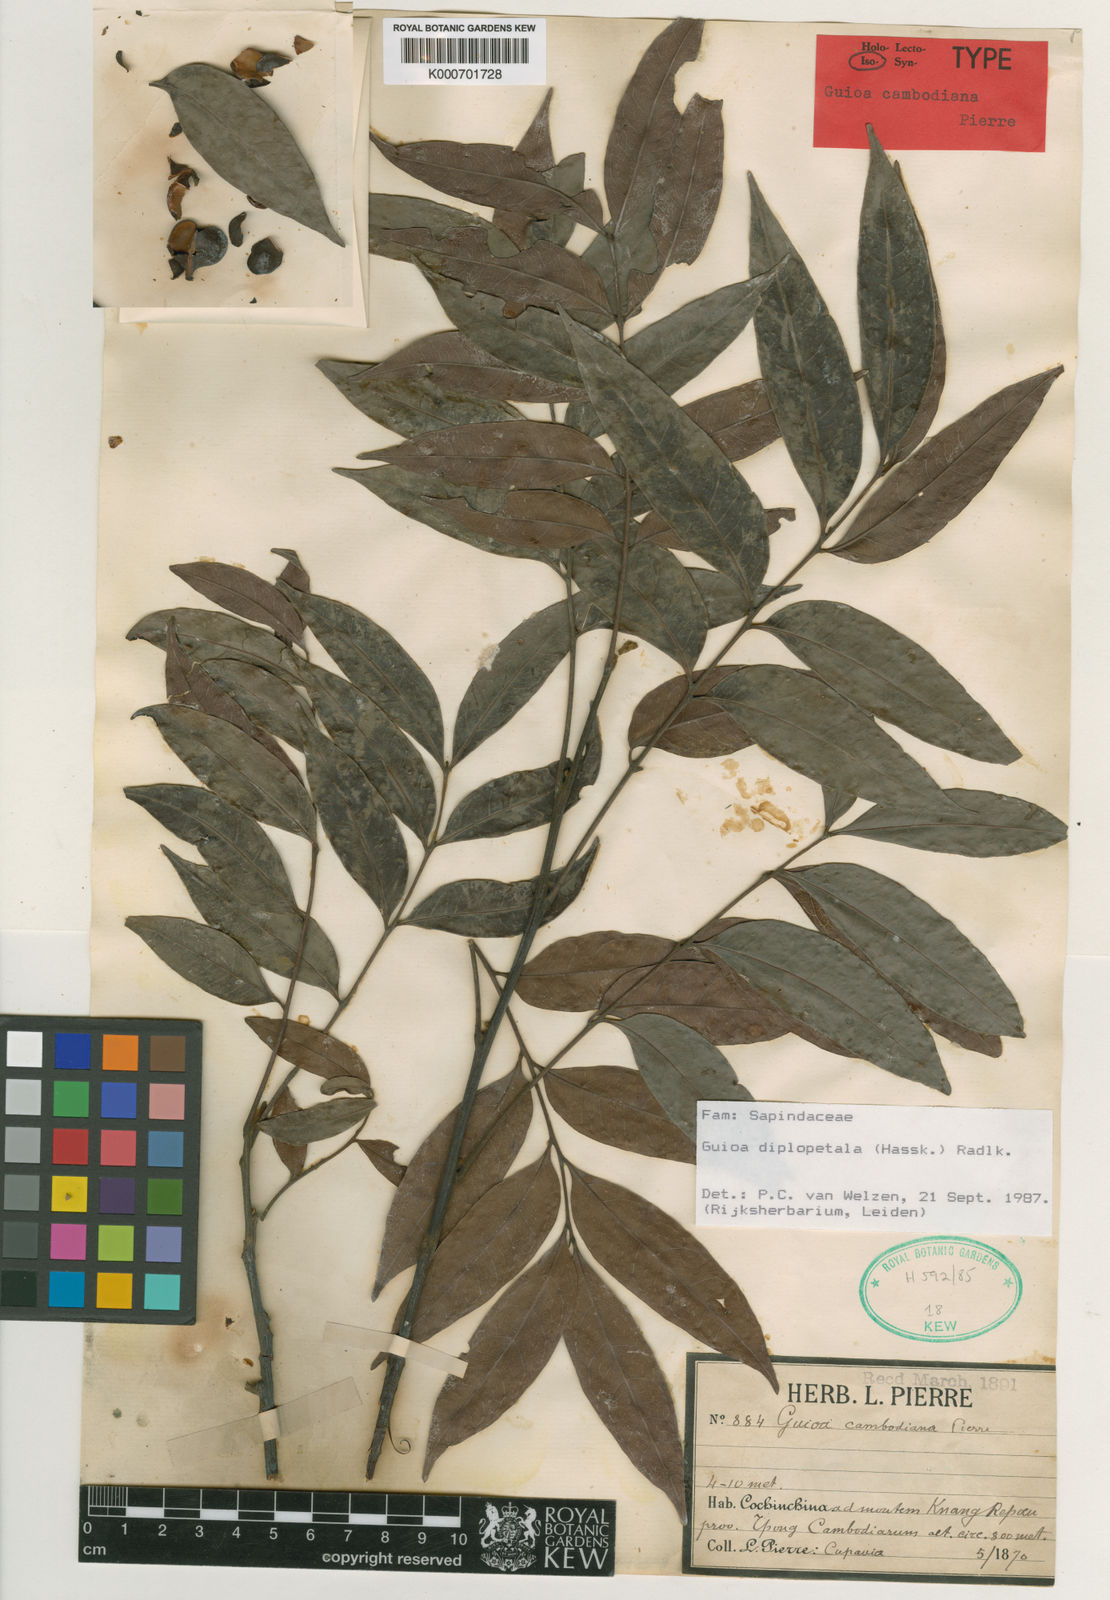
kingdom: Plantae
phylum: Tracheophyta
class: Magnoliopsida
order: Sapindales
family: Sapindaceae
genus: Guioa
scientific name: Guioa diplopetala
